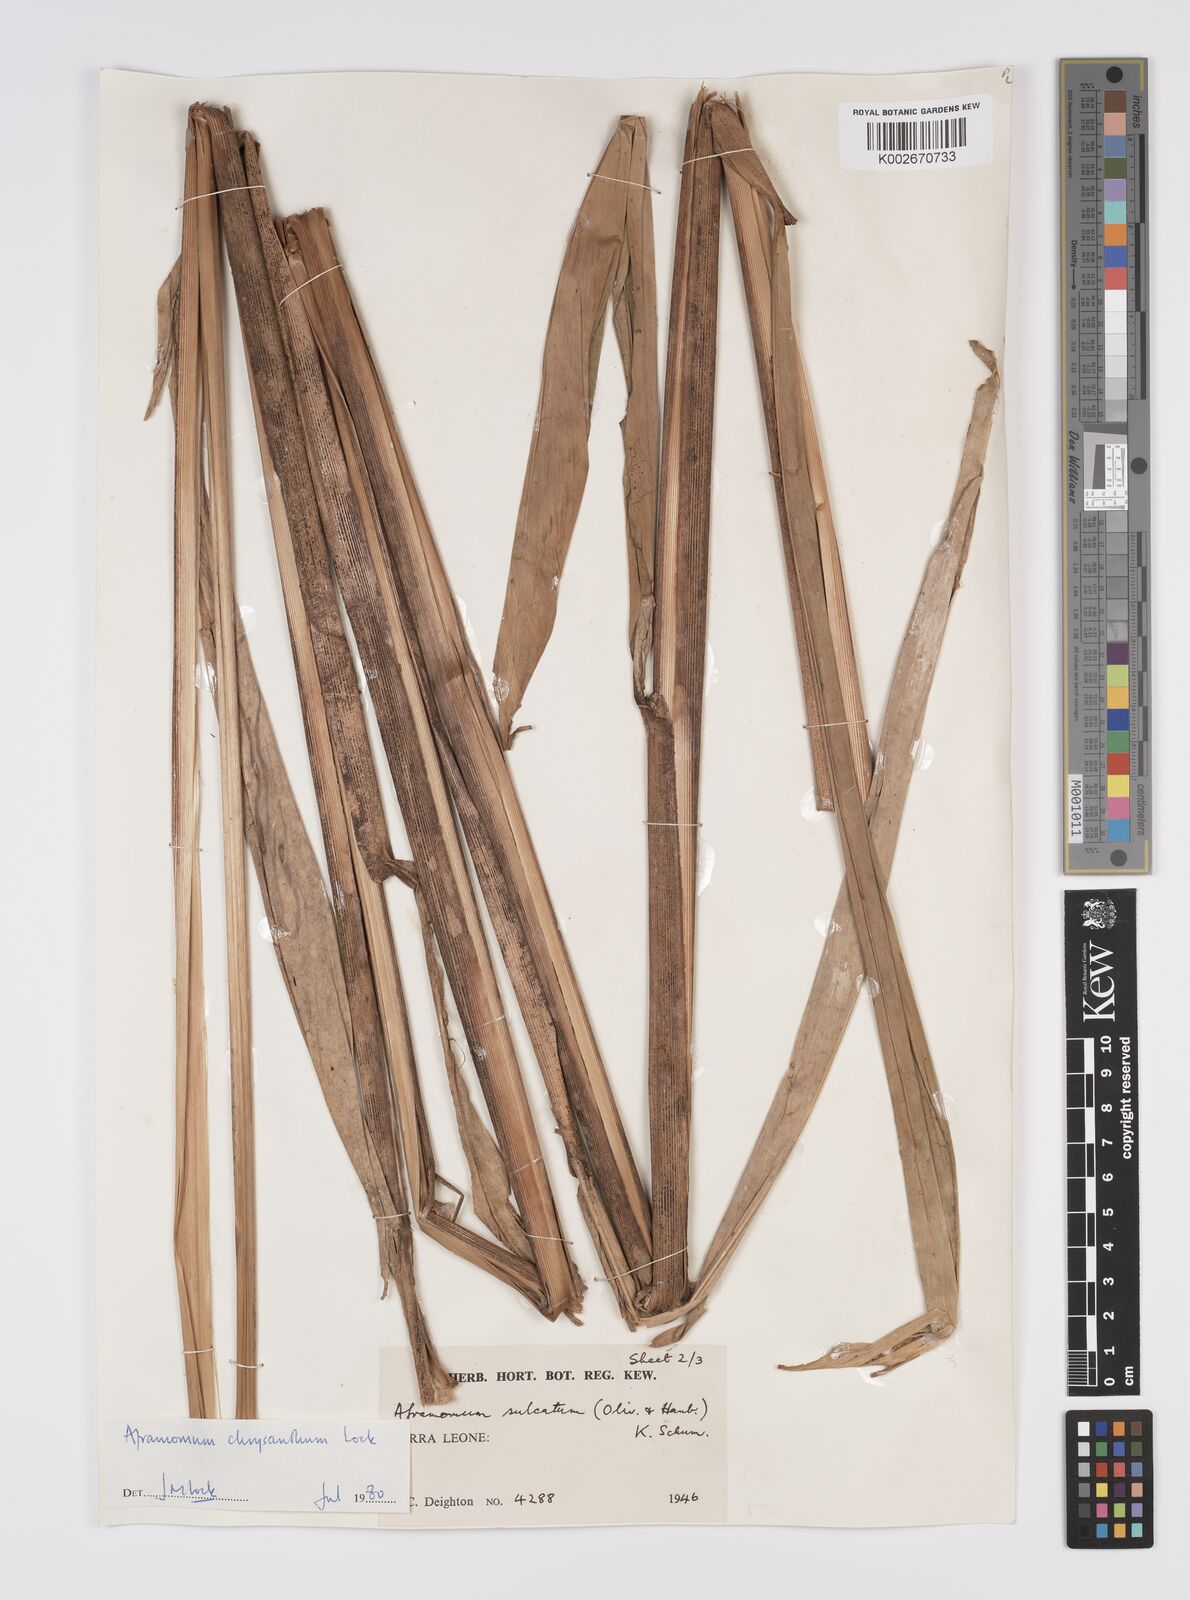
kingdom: Plantae
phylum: Tracheophyta
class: Liliopsida
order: Zingiberales
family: Zingiberaceae
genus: Aframomum
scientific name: Aframomum chrysanthum
